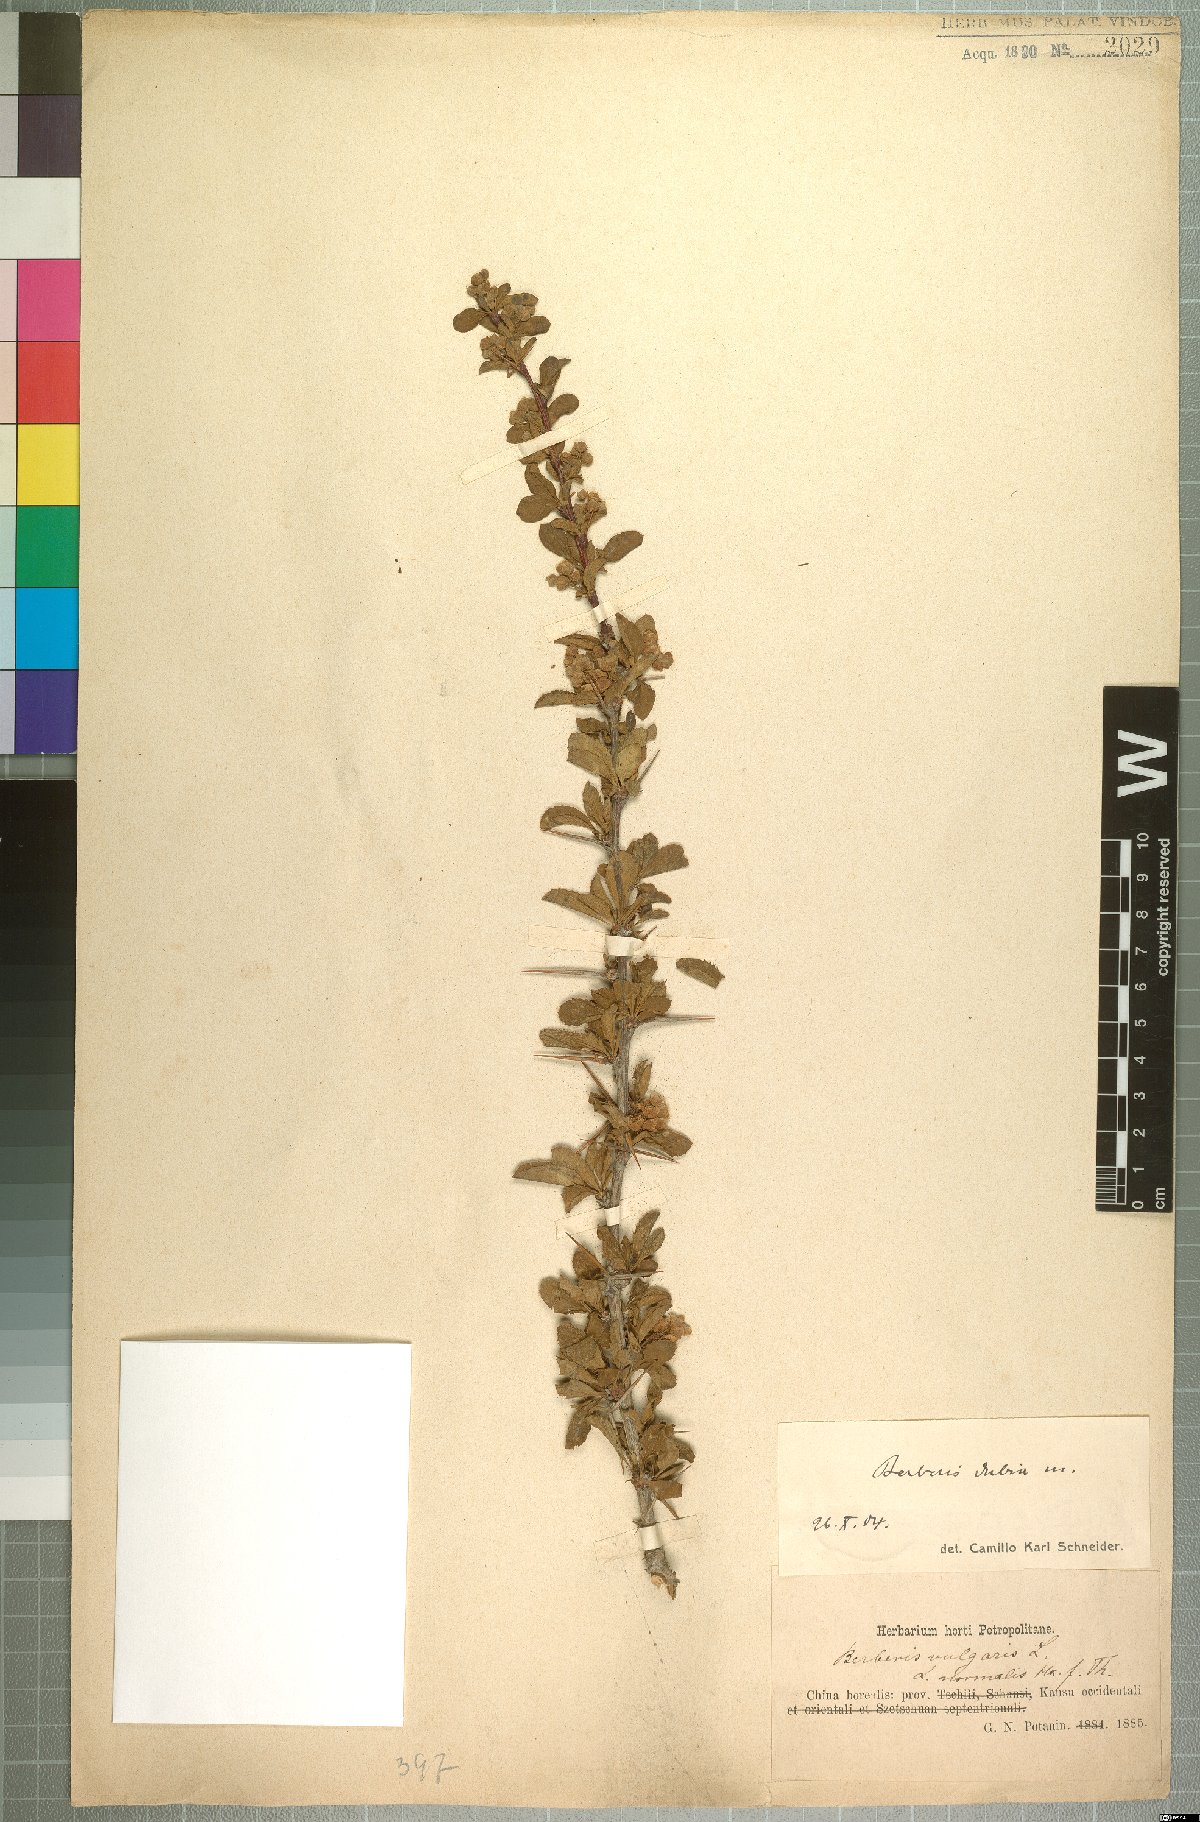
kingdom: Plantae
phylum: Tracheophyta
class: Magnoliopsida
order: Ranunculales
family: Berberidaceae
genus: Berberis
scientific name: Berberis dubia
